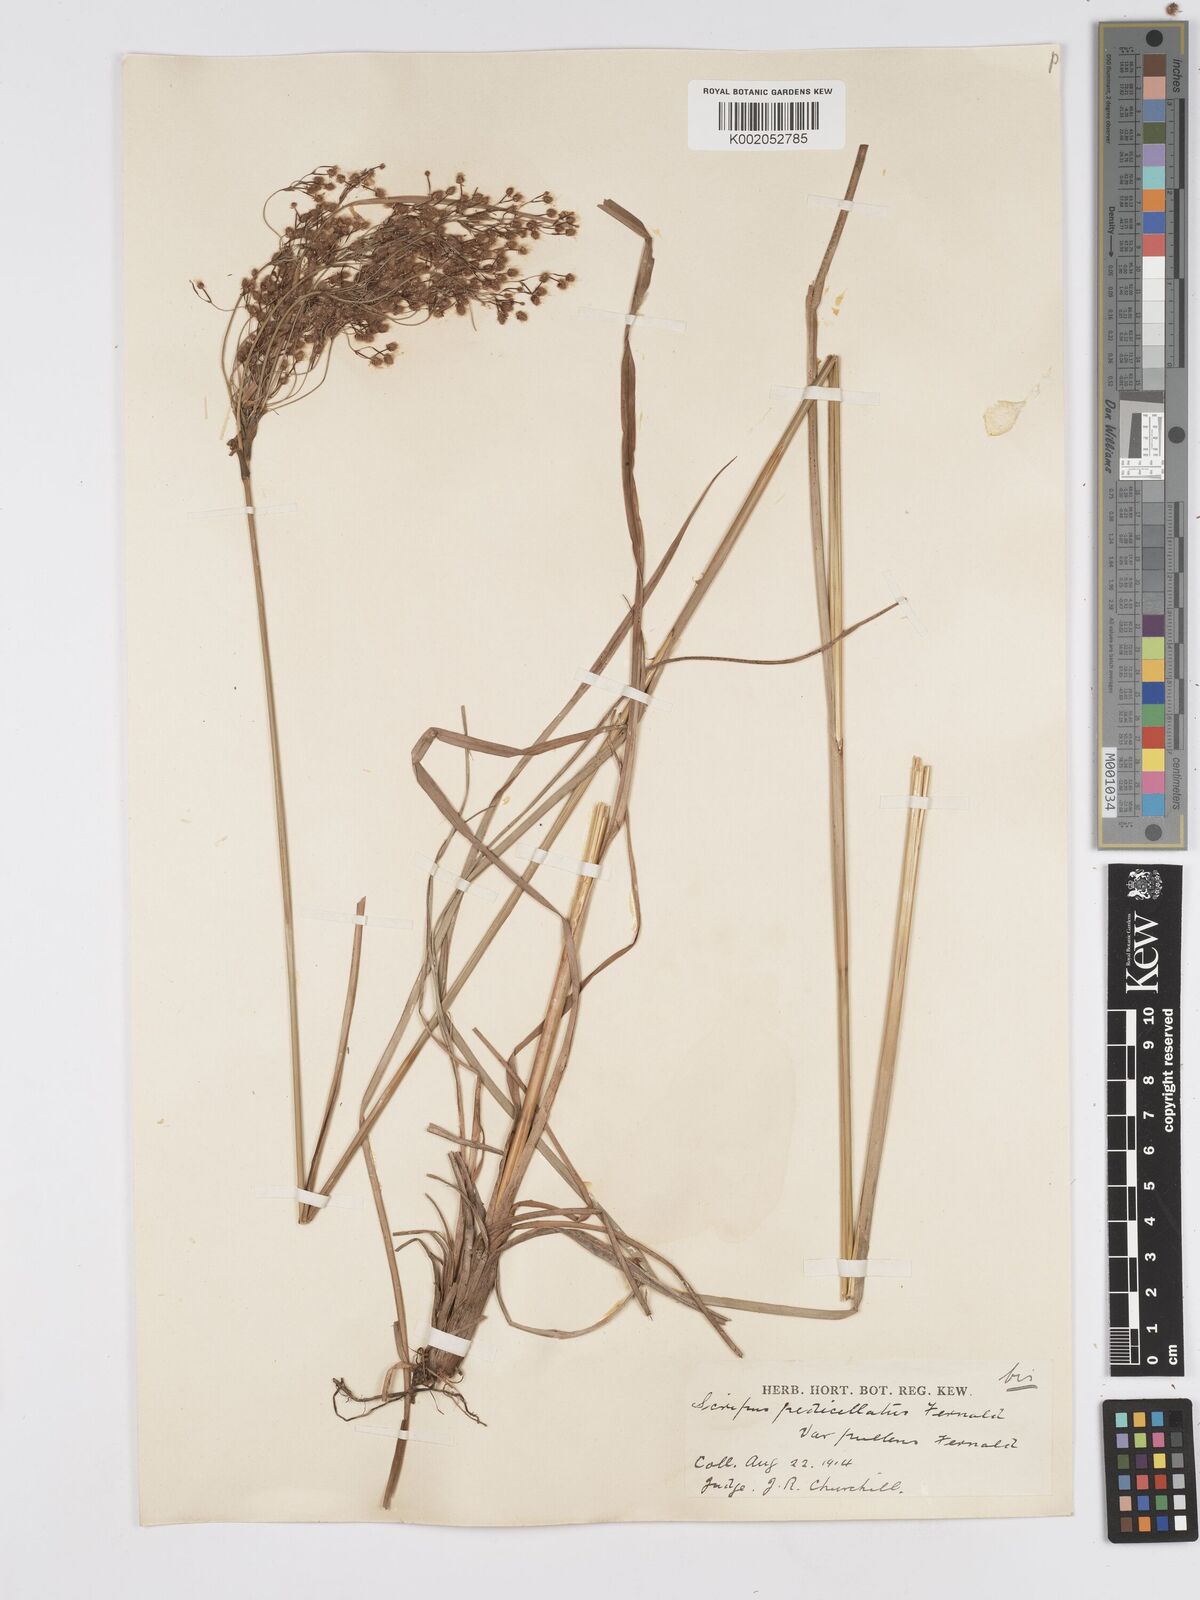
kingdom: Plantae
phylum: Tracheophyta
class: Liliopsida
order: Poales
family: Cyperaceae
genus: Scirpus
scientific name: Scirpus cyperinus
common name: Black-sheathed bulrush
